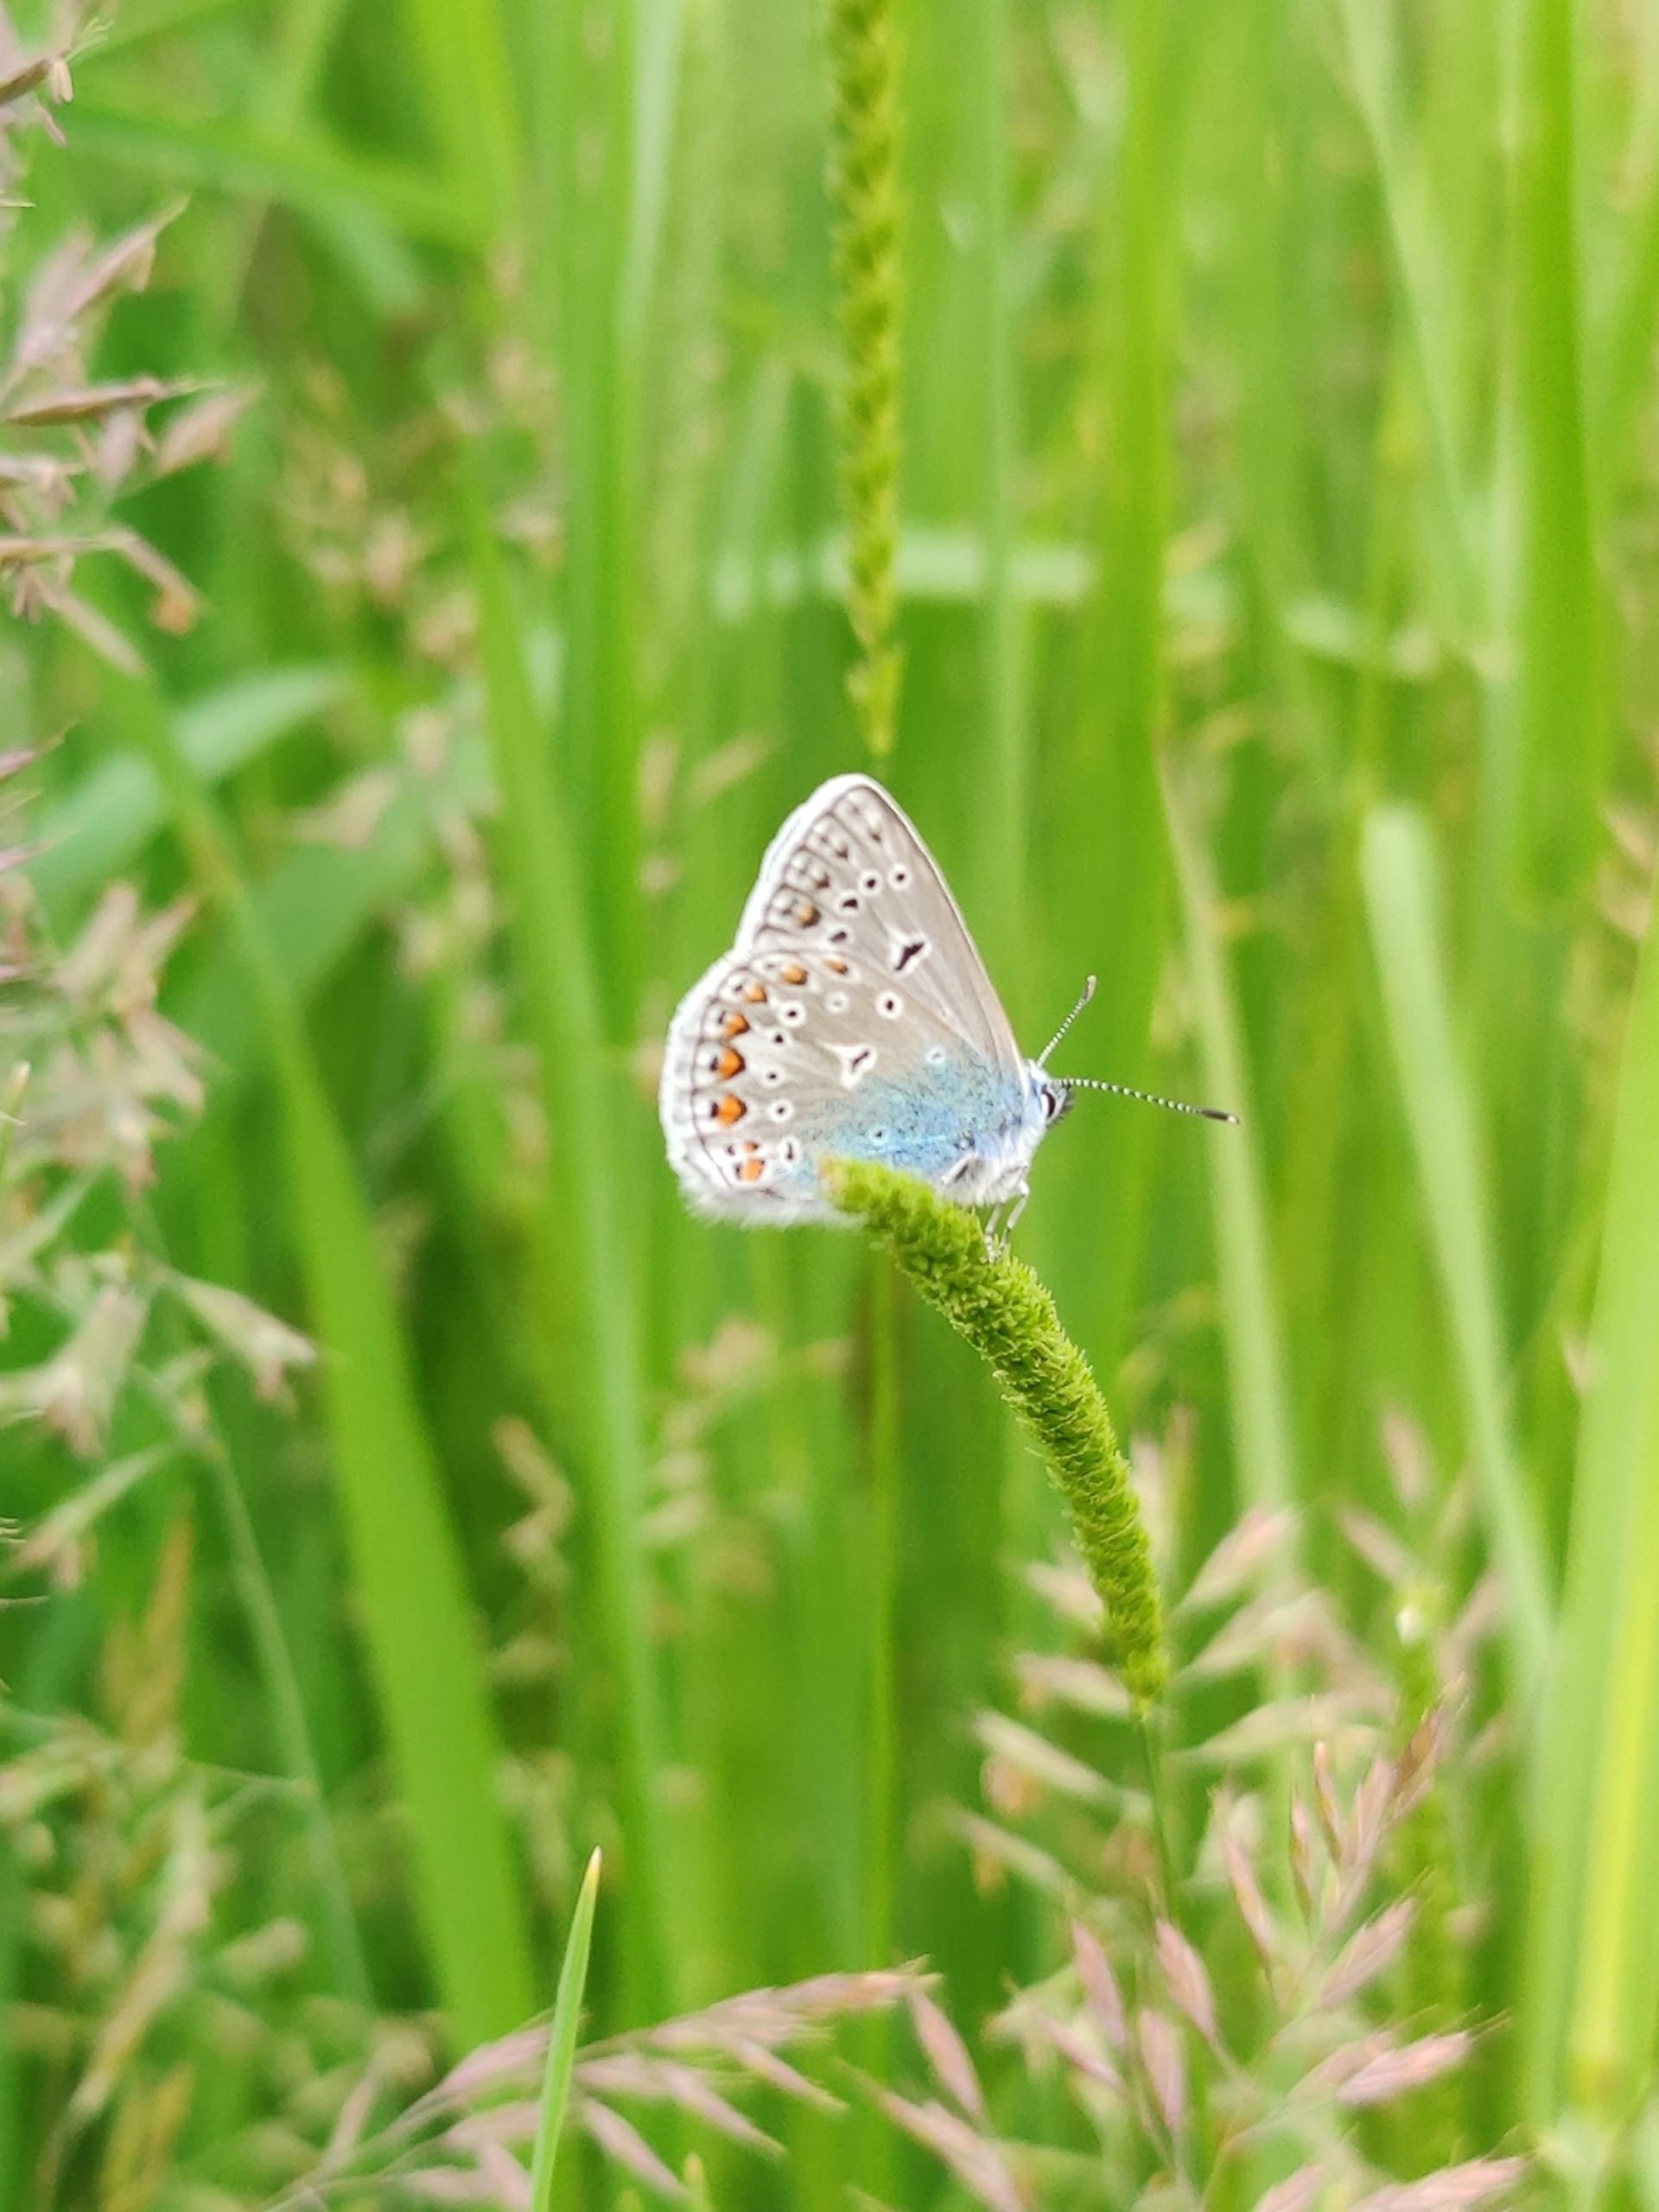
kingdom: Animalia
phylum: Arthropoda
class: Insecta
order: Lepidoptera
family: Lycaenidae
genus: Polyommatus
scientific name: Polyommatus icarus
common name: Almindelig blåfugl
